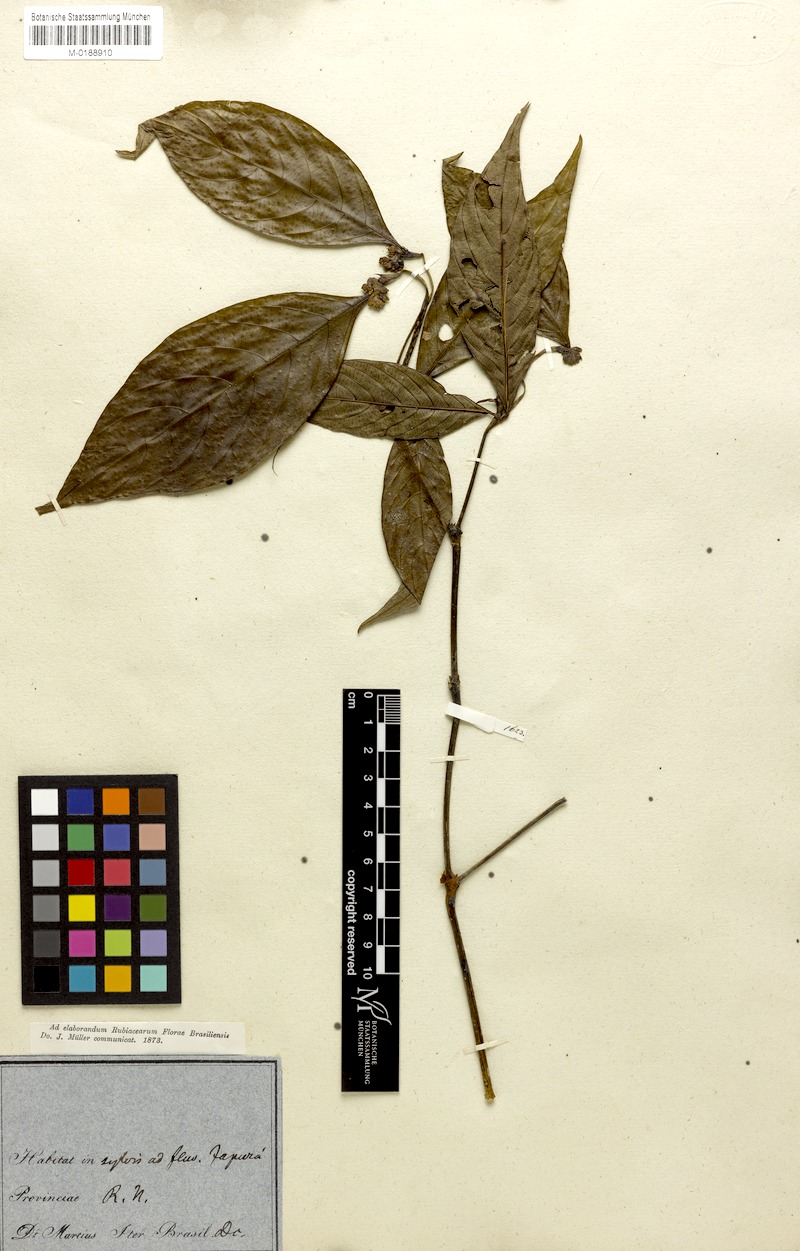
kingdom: Plantae
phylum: Tracheophyta
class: Magnoliopsida
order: Gentianales
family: Rubiaceae
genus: Palicourea
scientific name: Palicourea gracilenta
